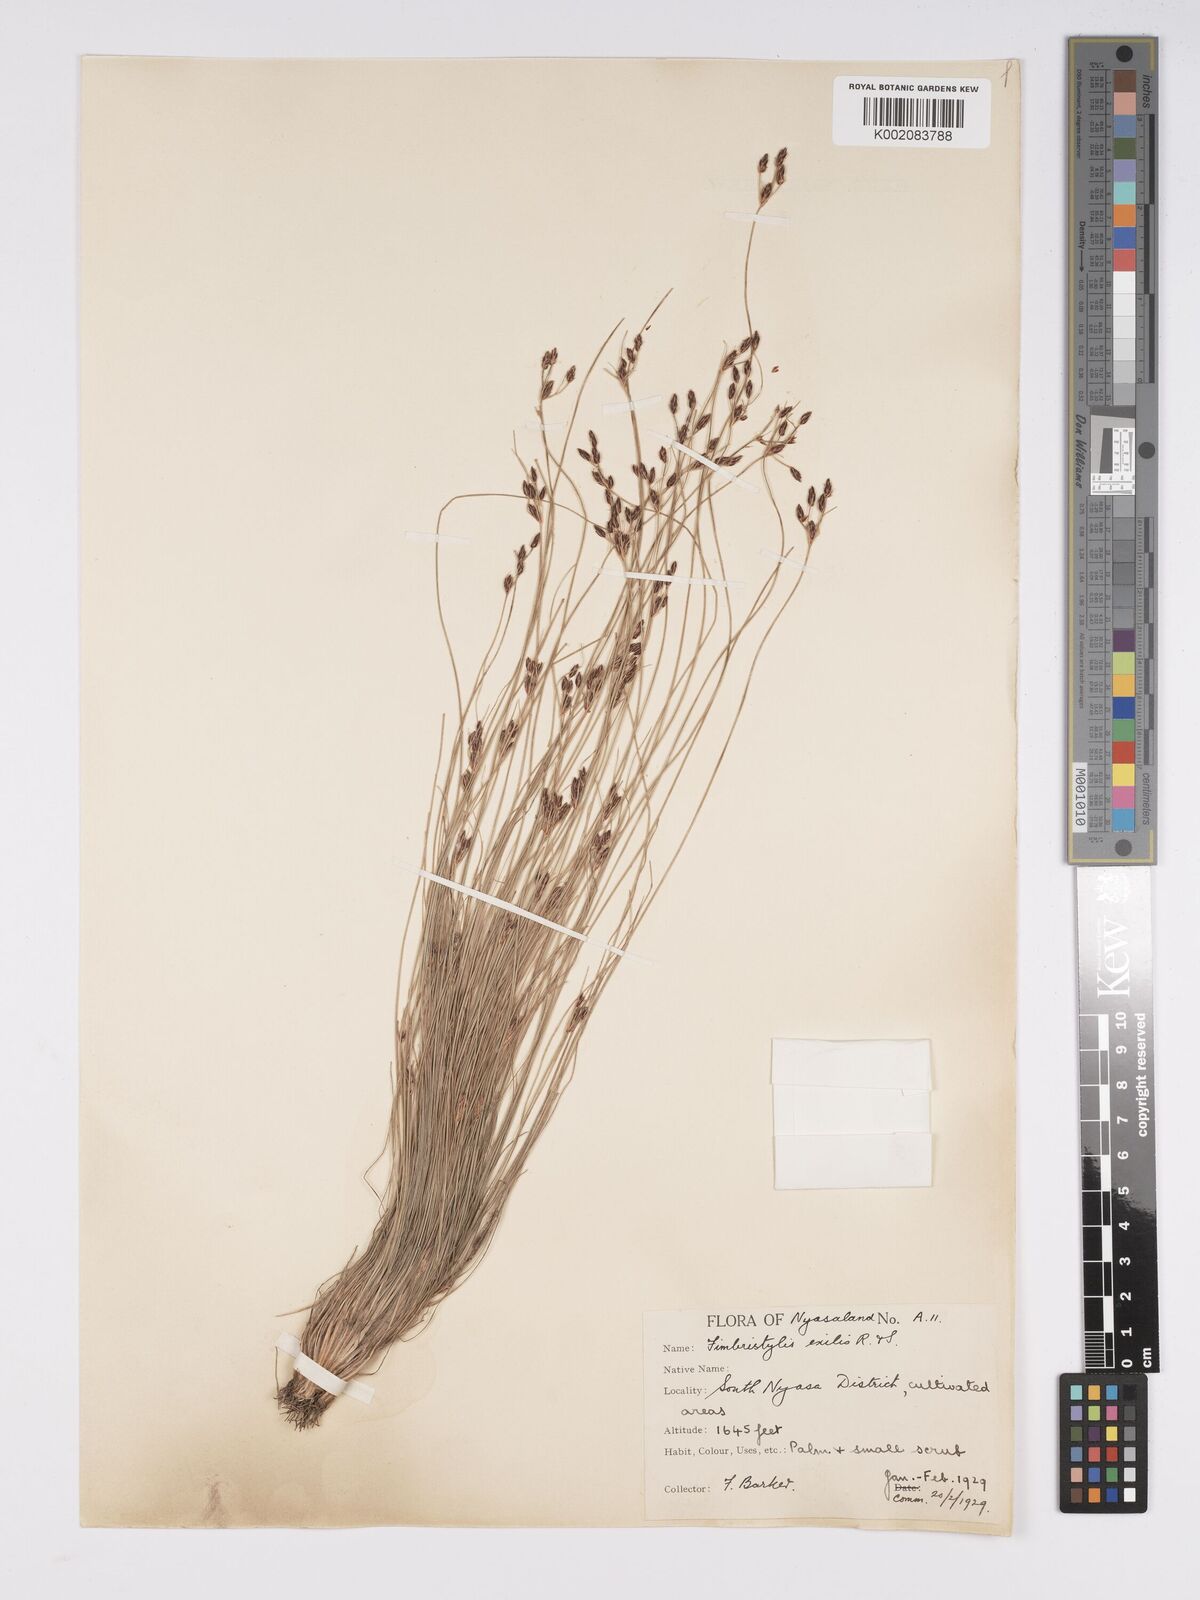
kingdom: Plantae
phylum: Tracheophyta
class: Liliopsida
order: Poales
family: Cyperaceae
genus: Bulbostylis
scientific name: Bulbostylis hispidula
